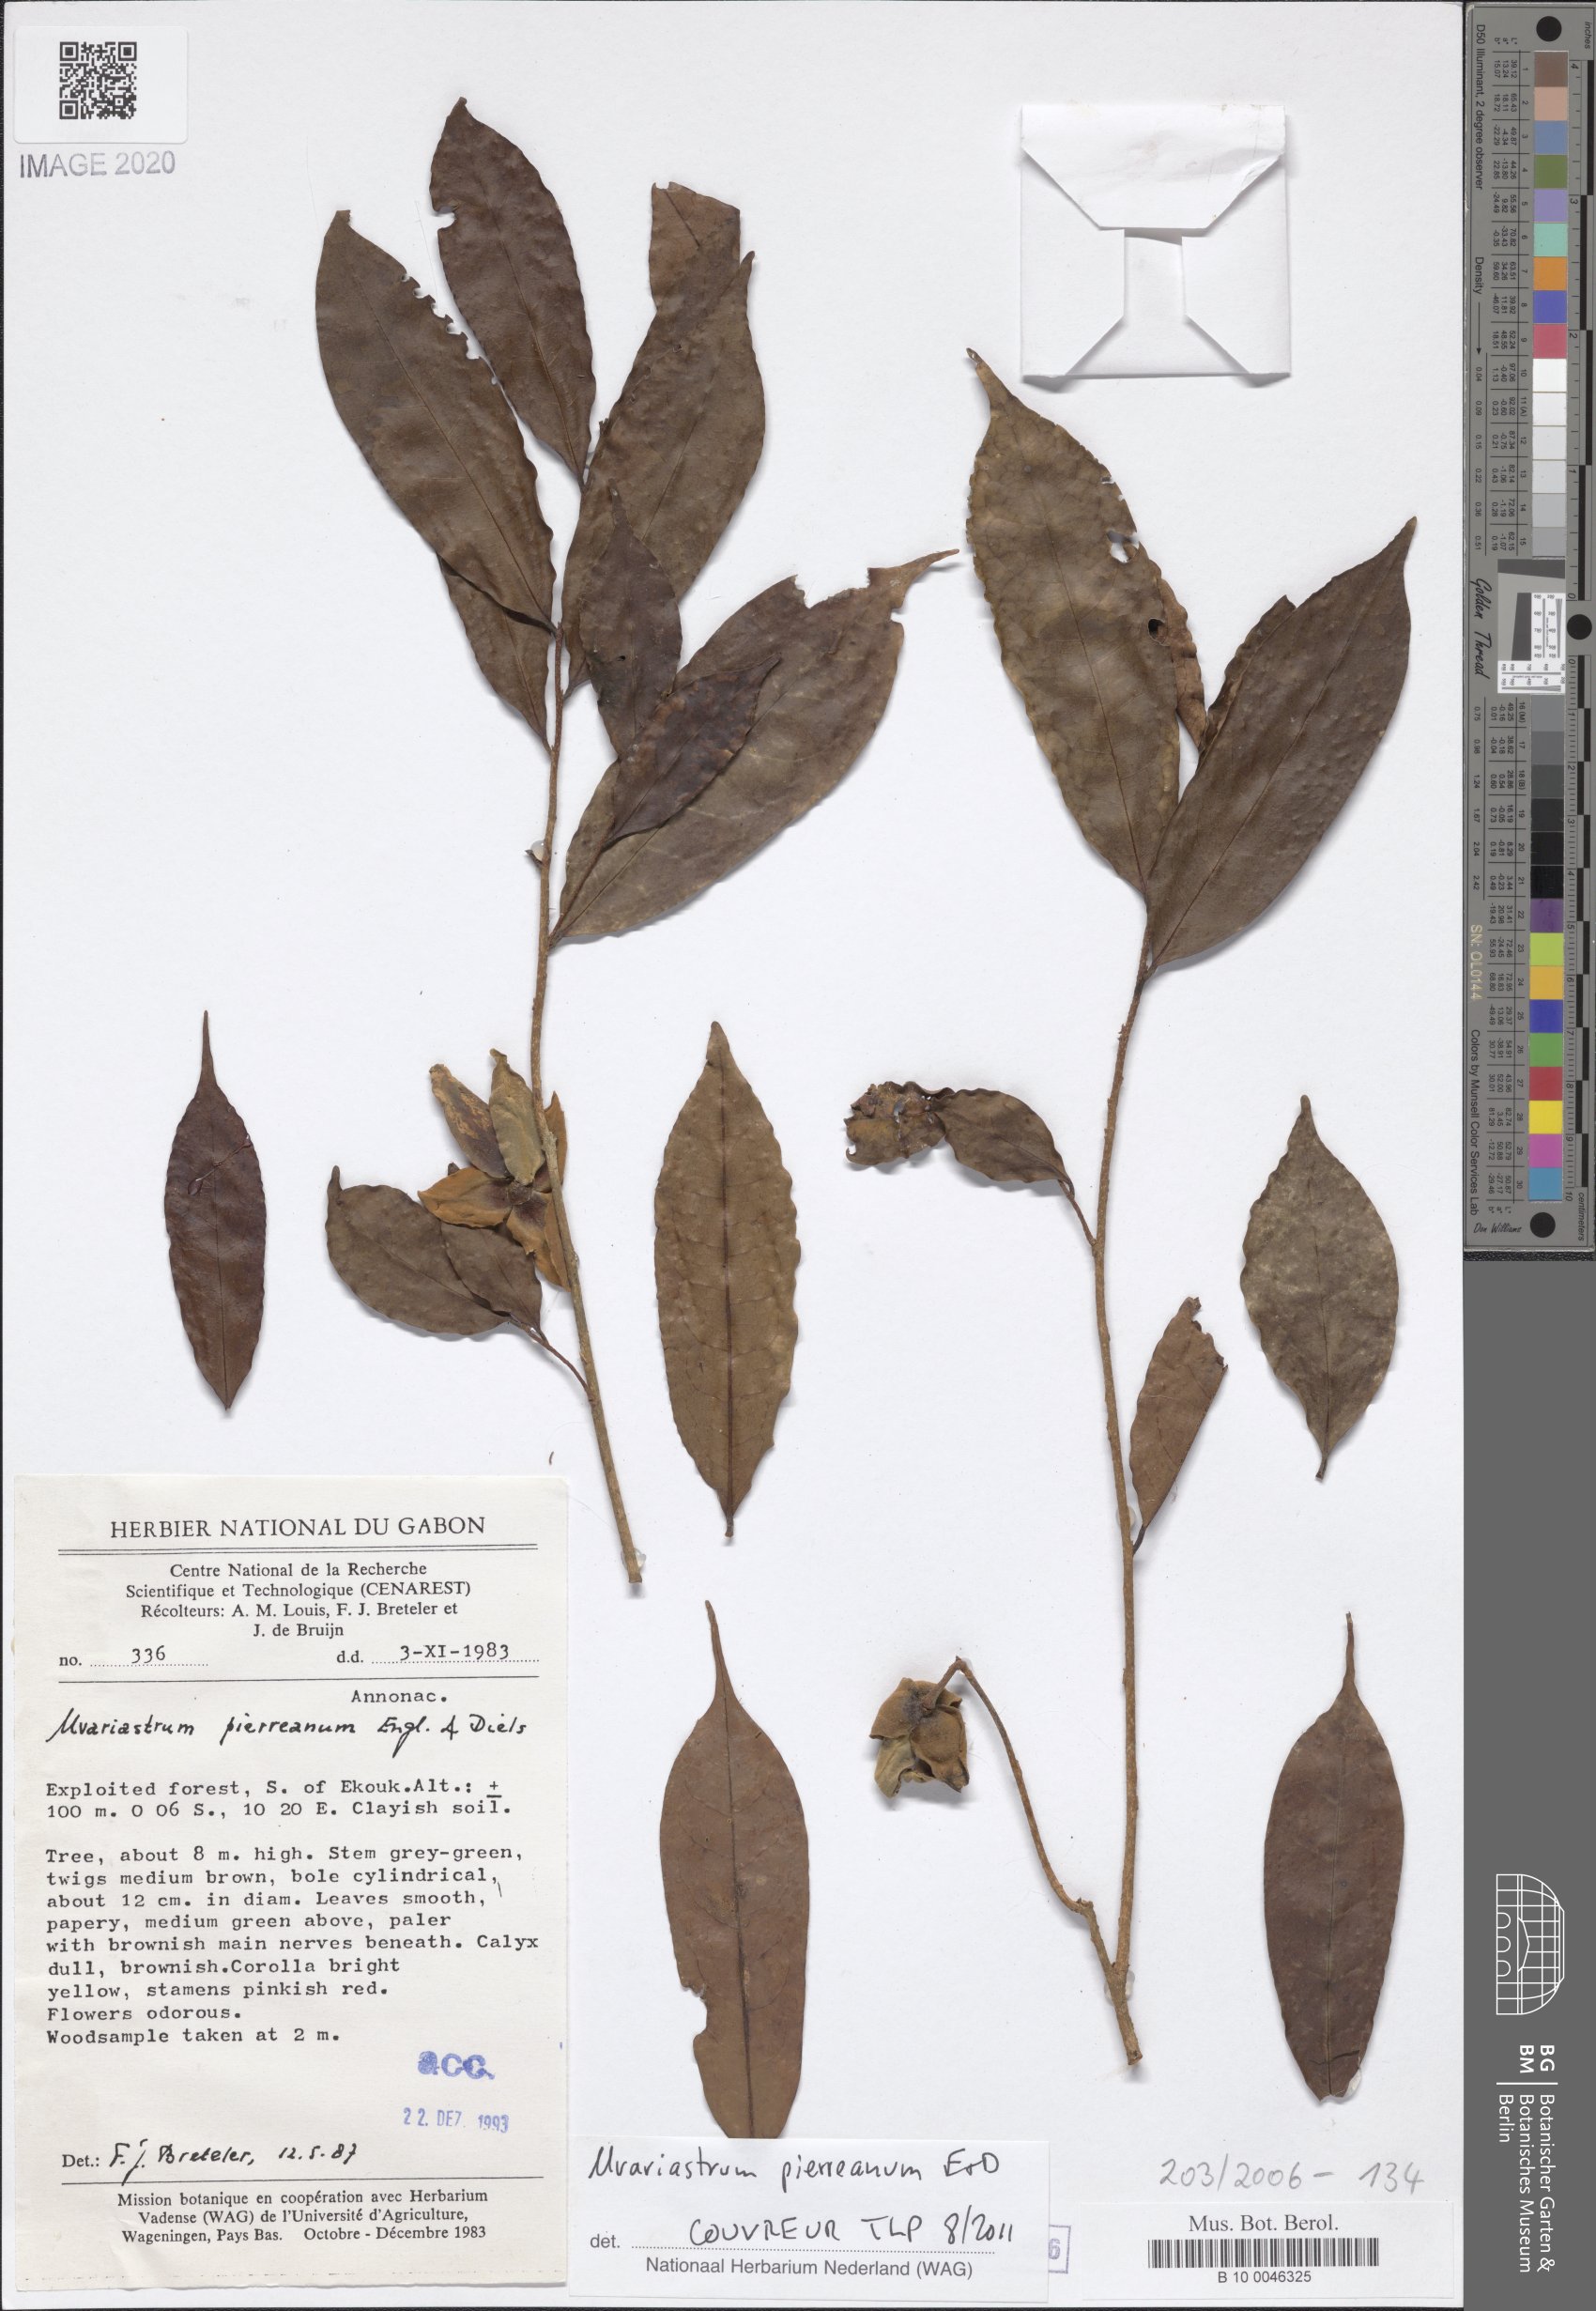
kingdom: Plantae
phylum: Tracheophyta
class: Magnoliopsida
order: Magnoliales
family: Annonaceae
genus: Uvariastrum
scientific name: Uvariastrum pierreanum
